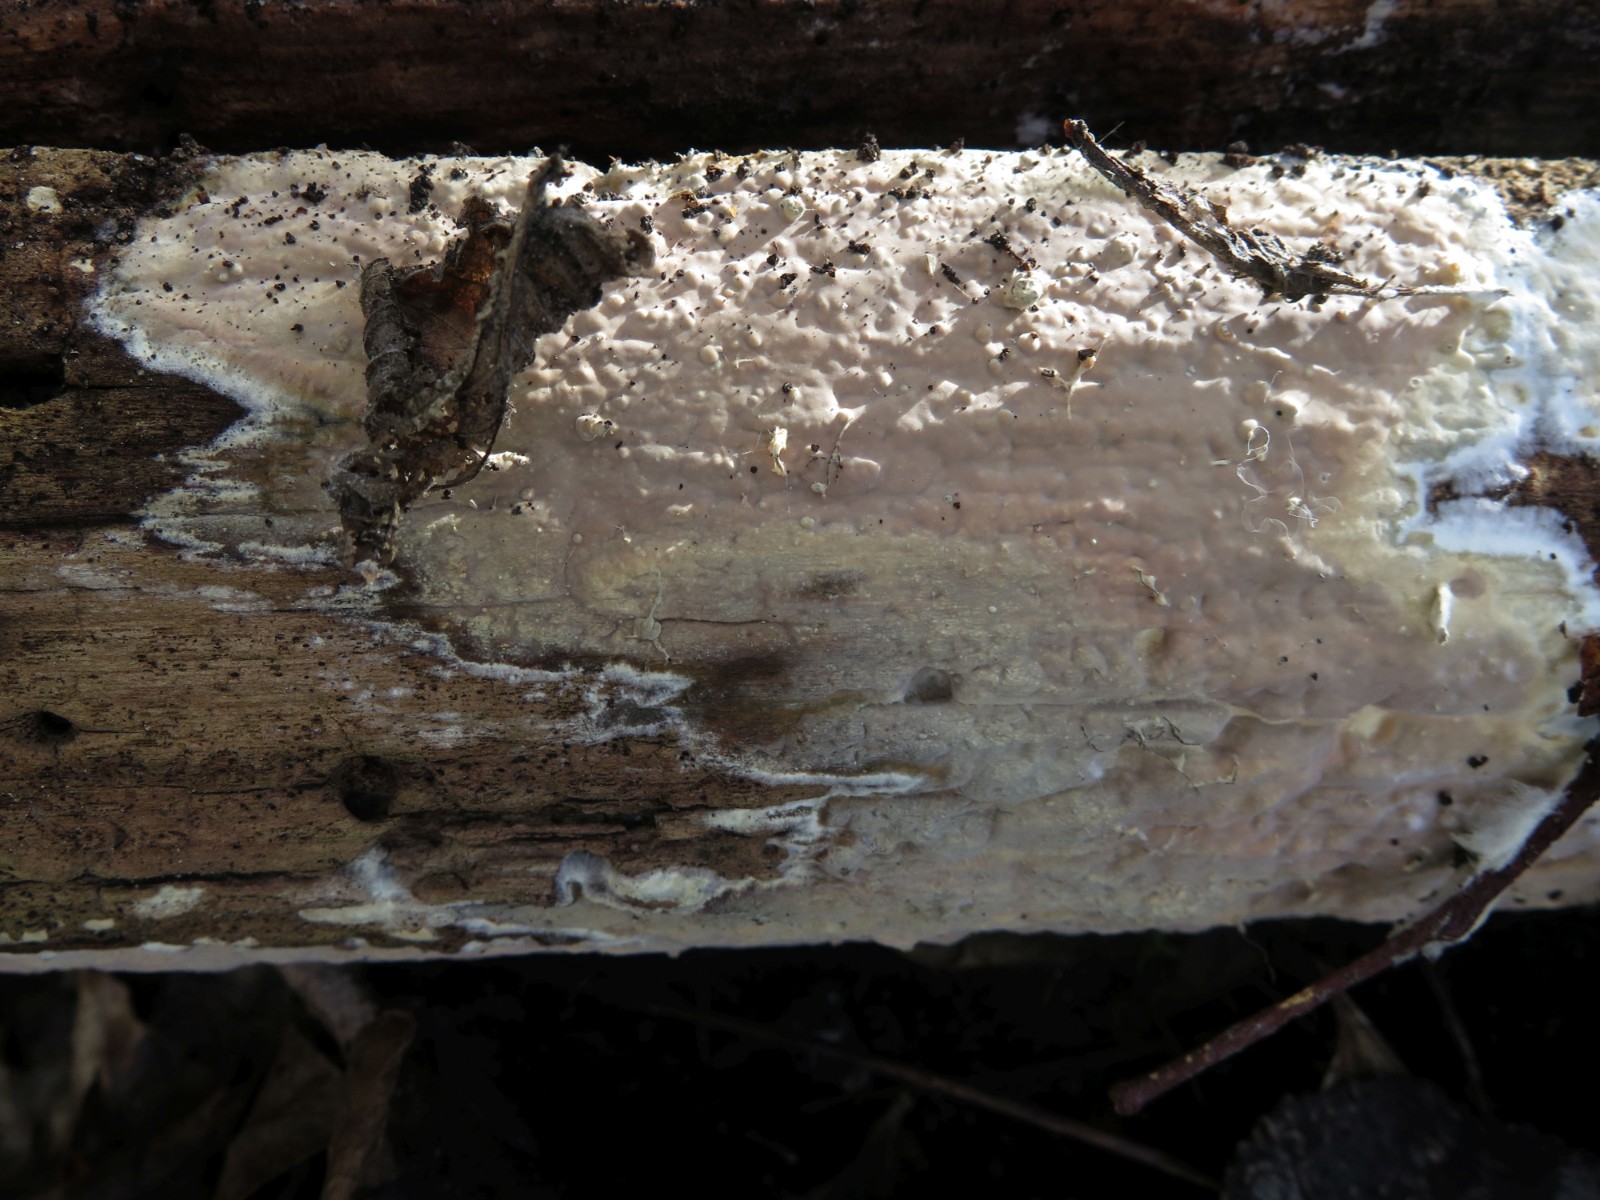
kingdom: Fungi
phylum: Basidiomycota
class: Agaricomycetes
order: Russulales
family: Peniophoraceae
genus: Scytinostroma
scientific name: Scytinostroma hemidichophyticum
